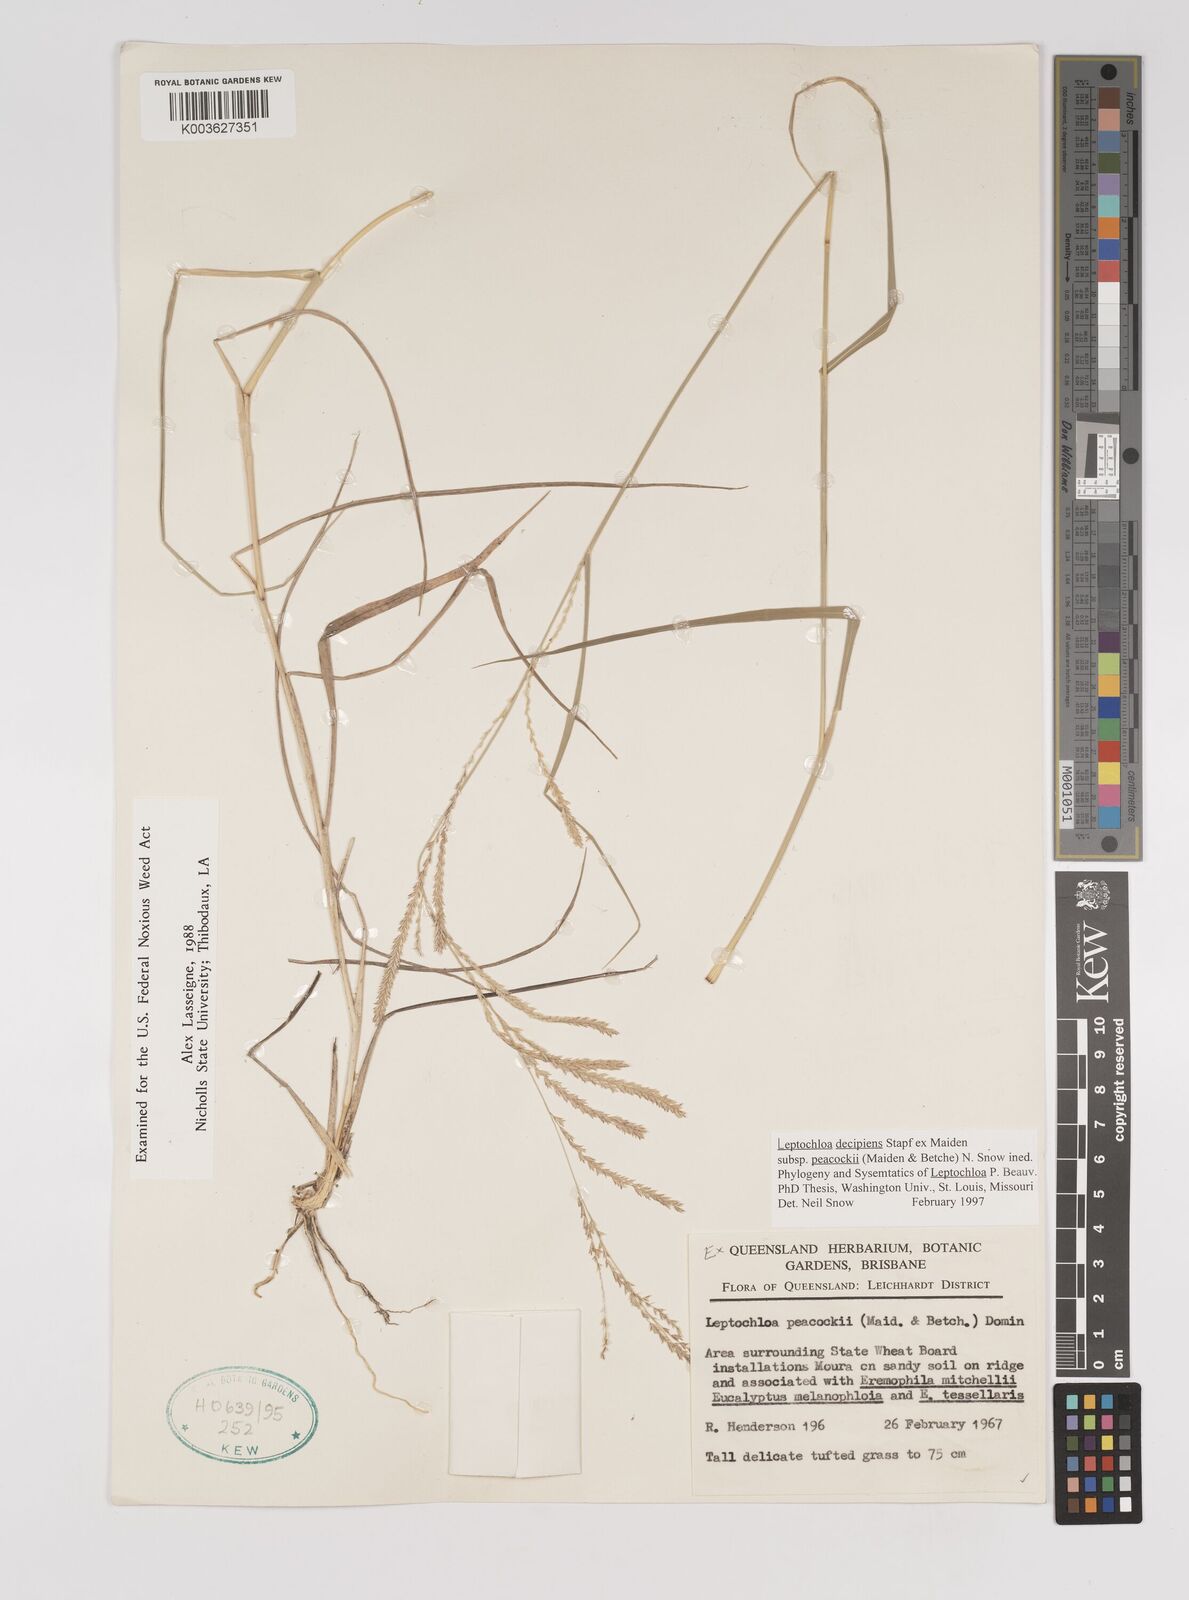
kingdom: Plantae
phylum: Tracheophyta
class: Liliopsida
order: Poales
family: Poaceae
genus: Leptochloa
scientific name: Leptochloa decipiens
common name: Australian sprangletop
